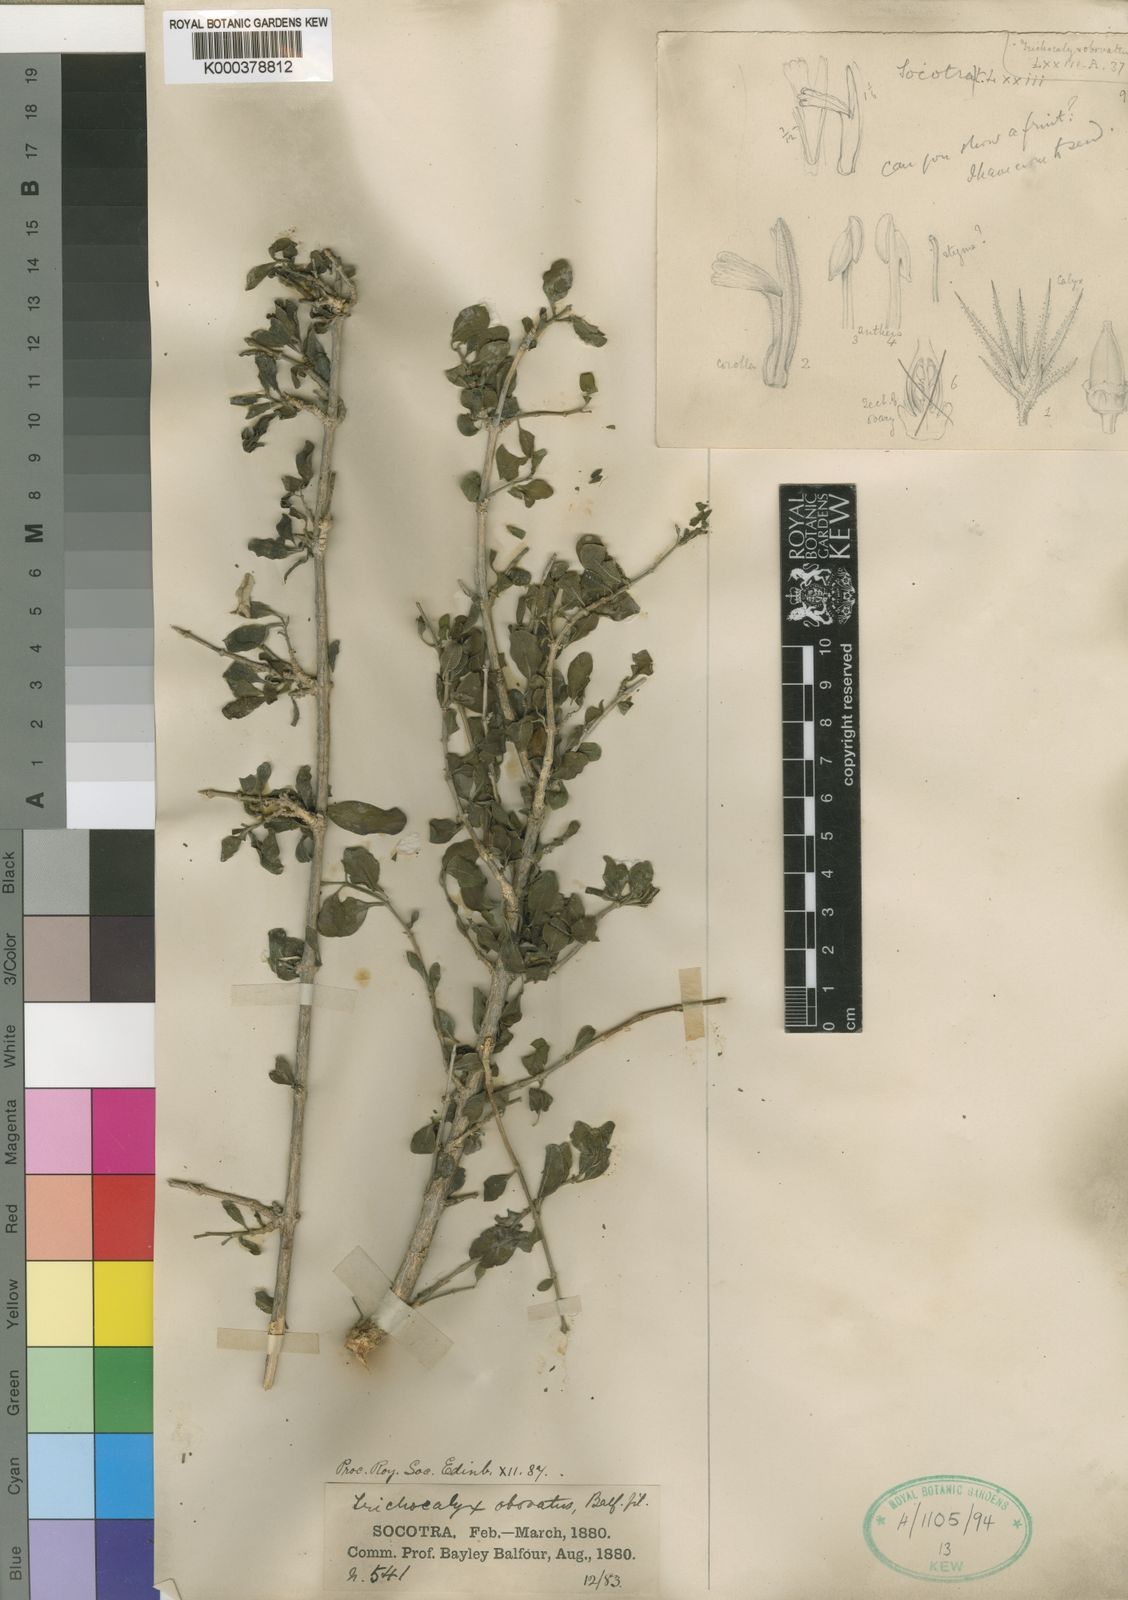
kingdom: Plantae
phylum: Tracheophyta
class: Magnoliopsida
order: Lamiales
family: Acanthaceae
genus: Trichocalyx
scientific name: Trichocalyx obovatus
